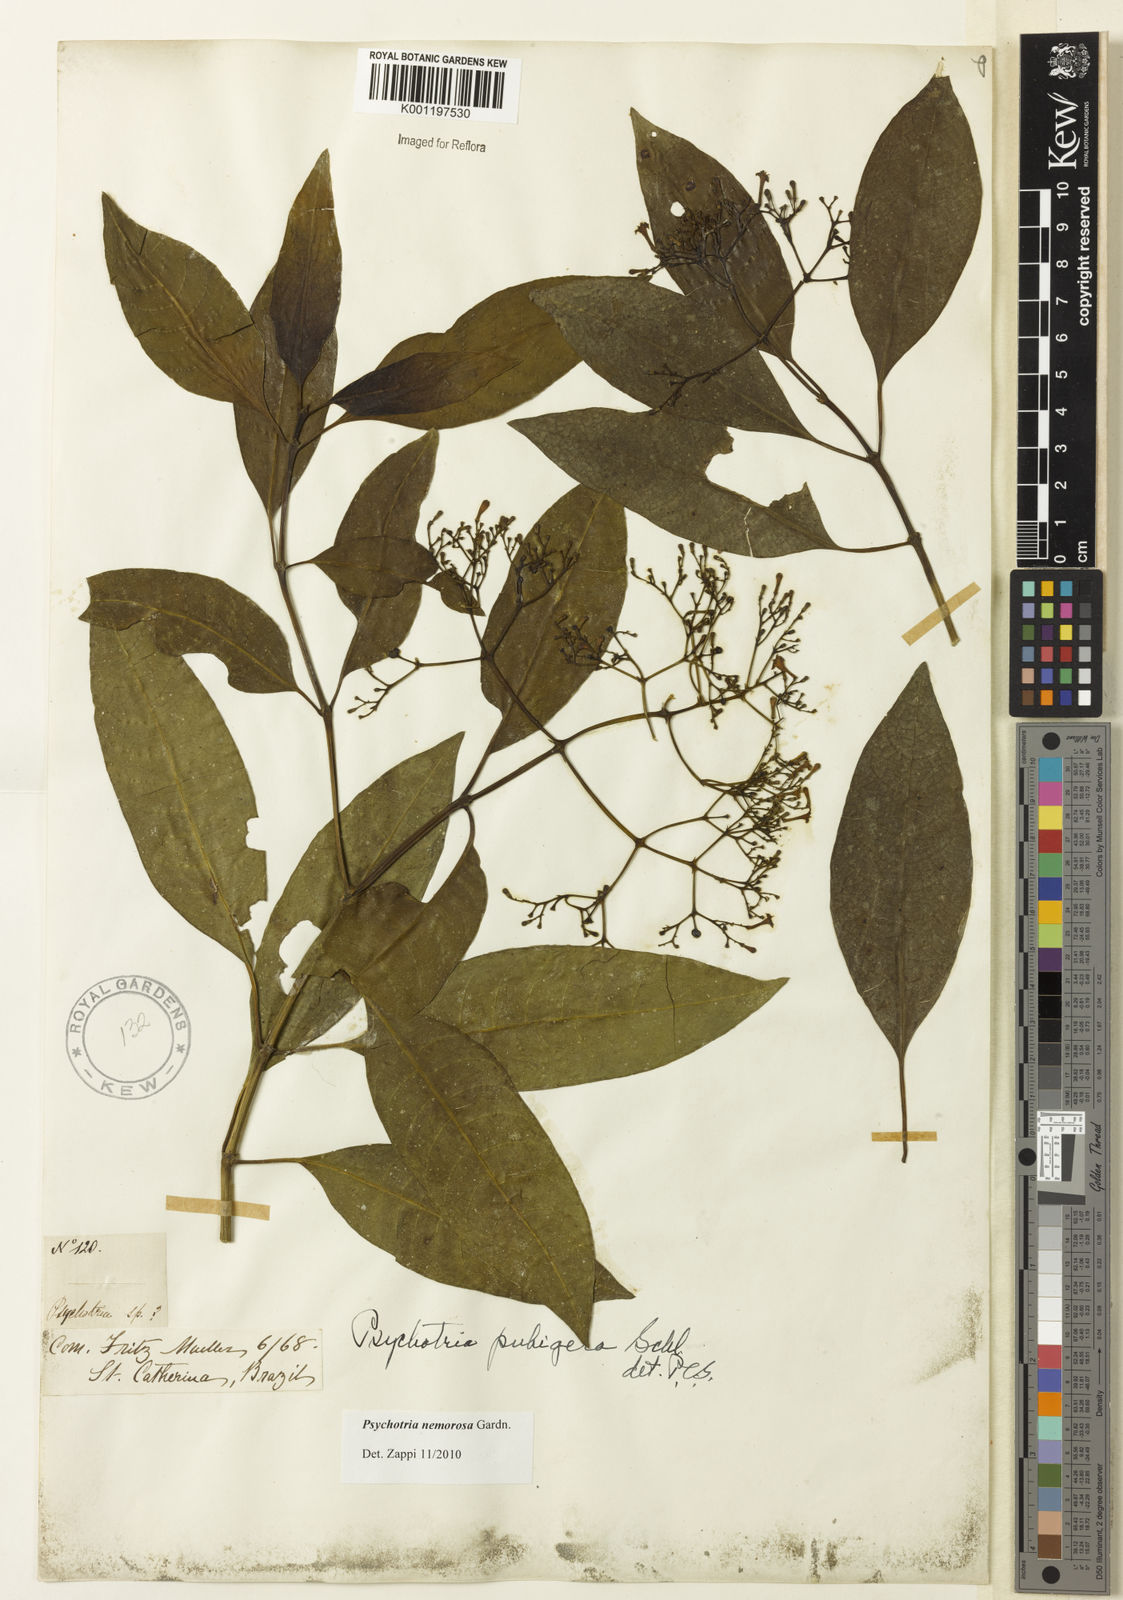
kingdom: Plantae
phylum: Tracheophyta
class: Magnoliopsida
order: Gentianales
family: Rubiaceae
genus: Psychotria
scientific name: Psychotria nemorosa
